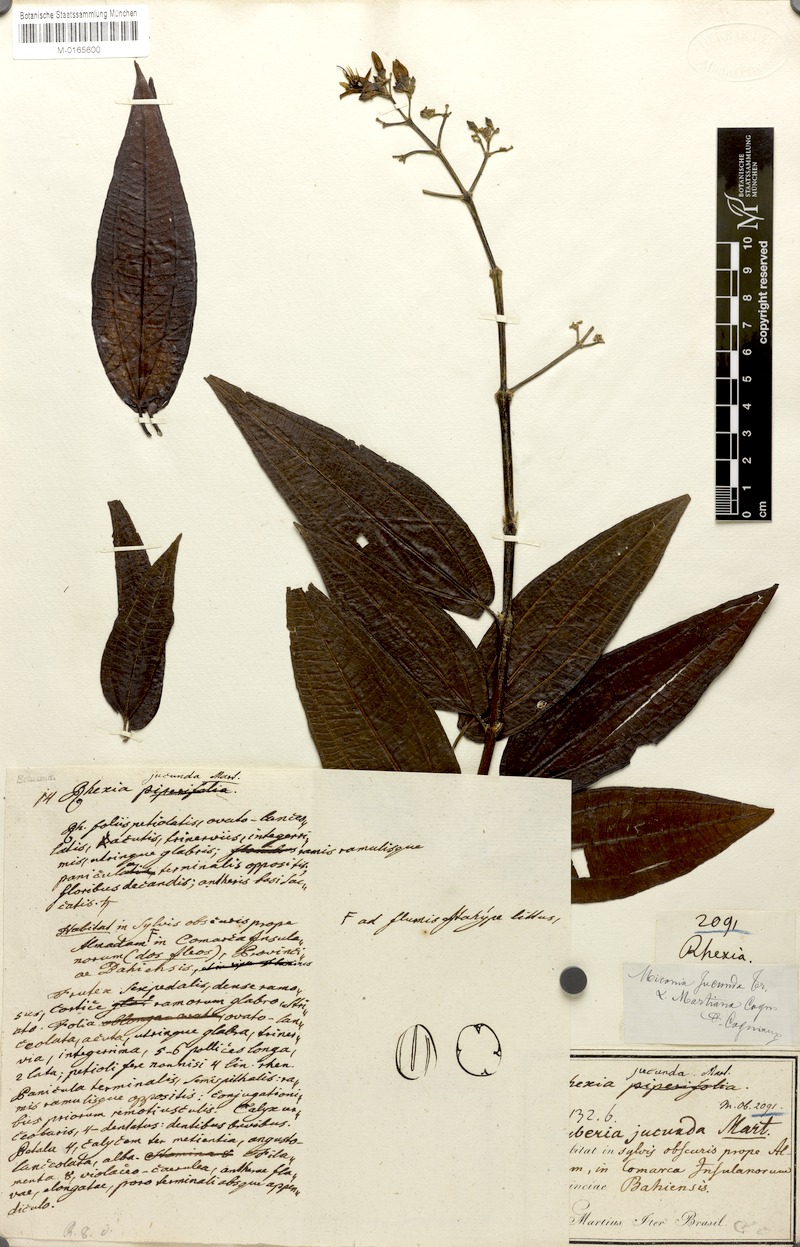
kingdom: Plantae
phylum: Tracheophyta
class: Magnoliopsida
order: Myrtales
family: Melastomataceae
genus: Miconia
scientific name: Miconia jucunda
